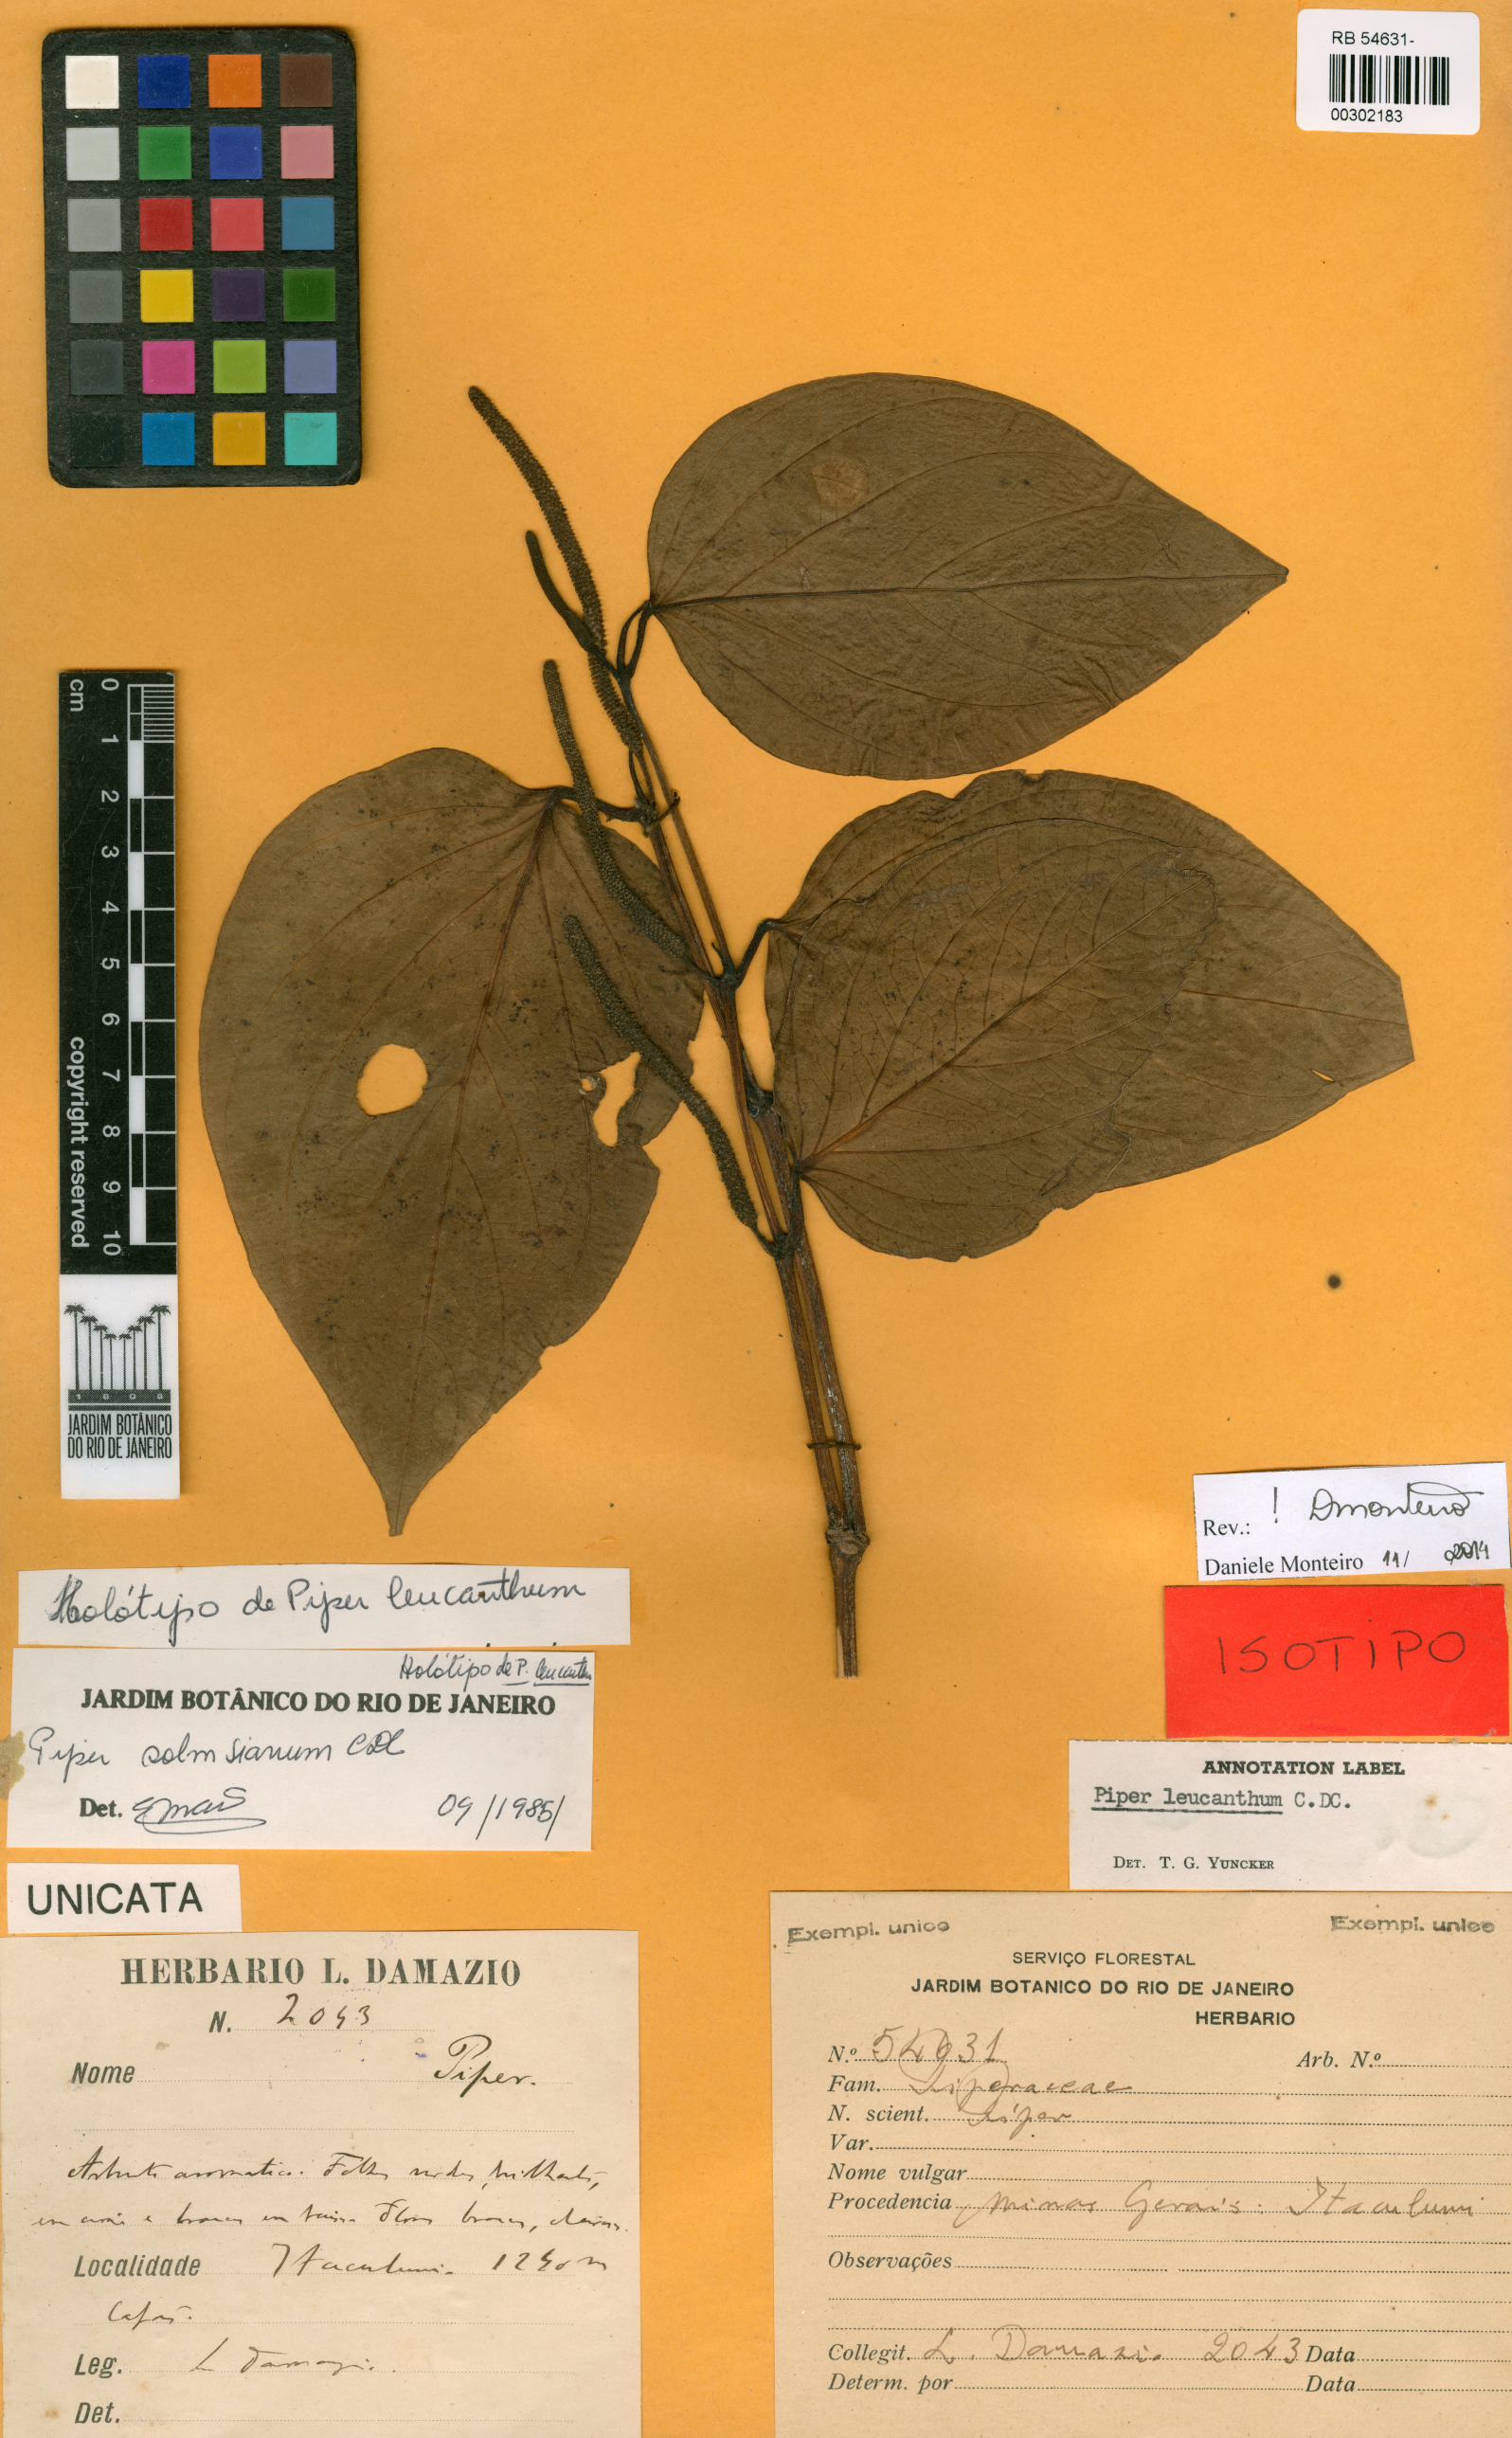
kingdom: Plantae
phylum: Tracheophyta
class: Magnoliopsida
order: Piperales
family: Piperaceae
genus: Piper
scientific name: Piper solmsianum
